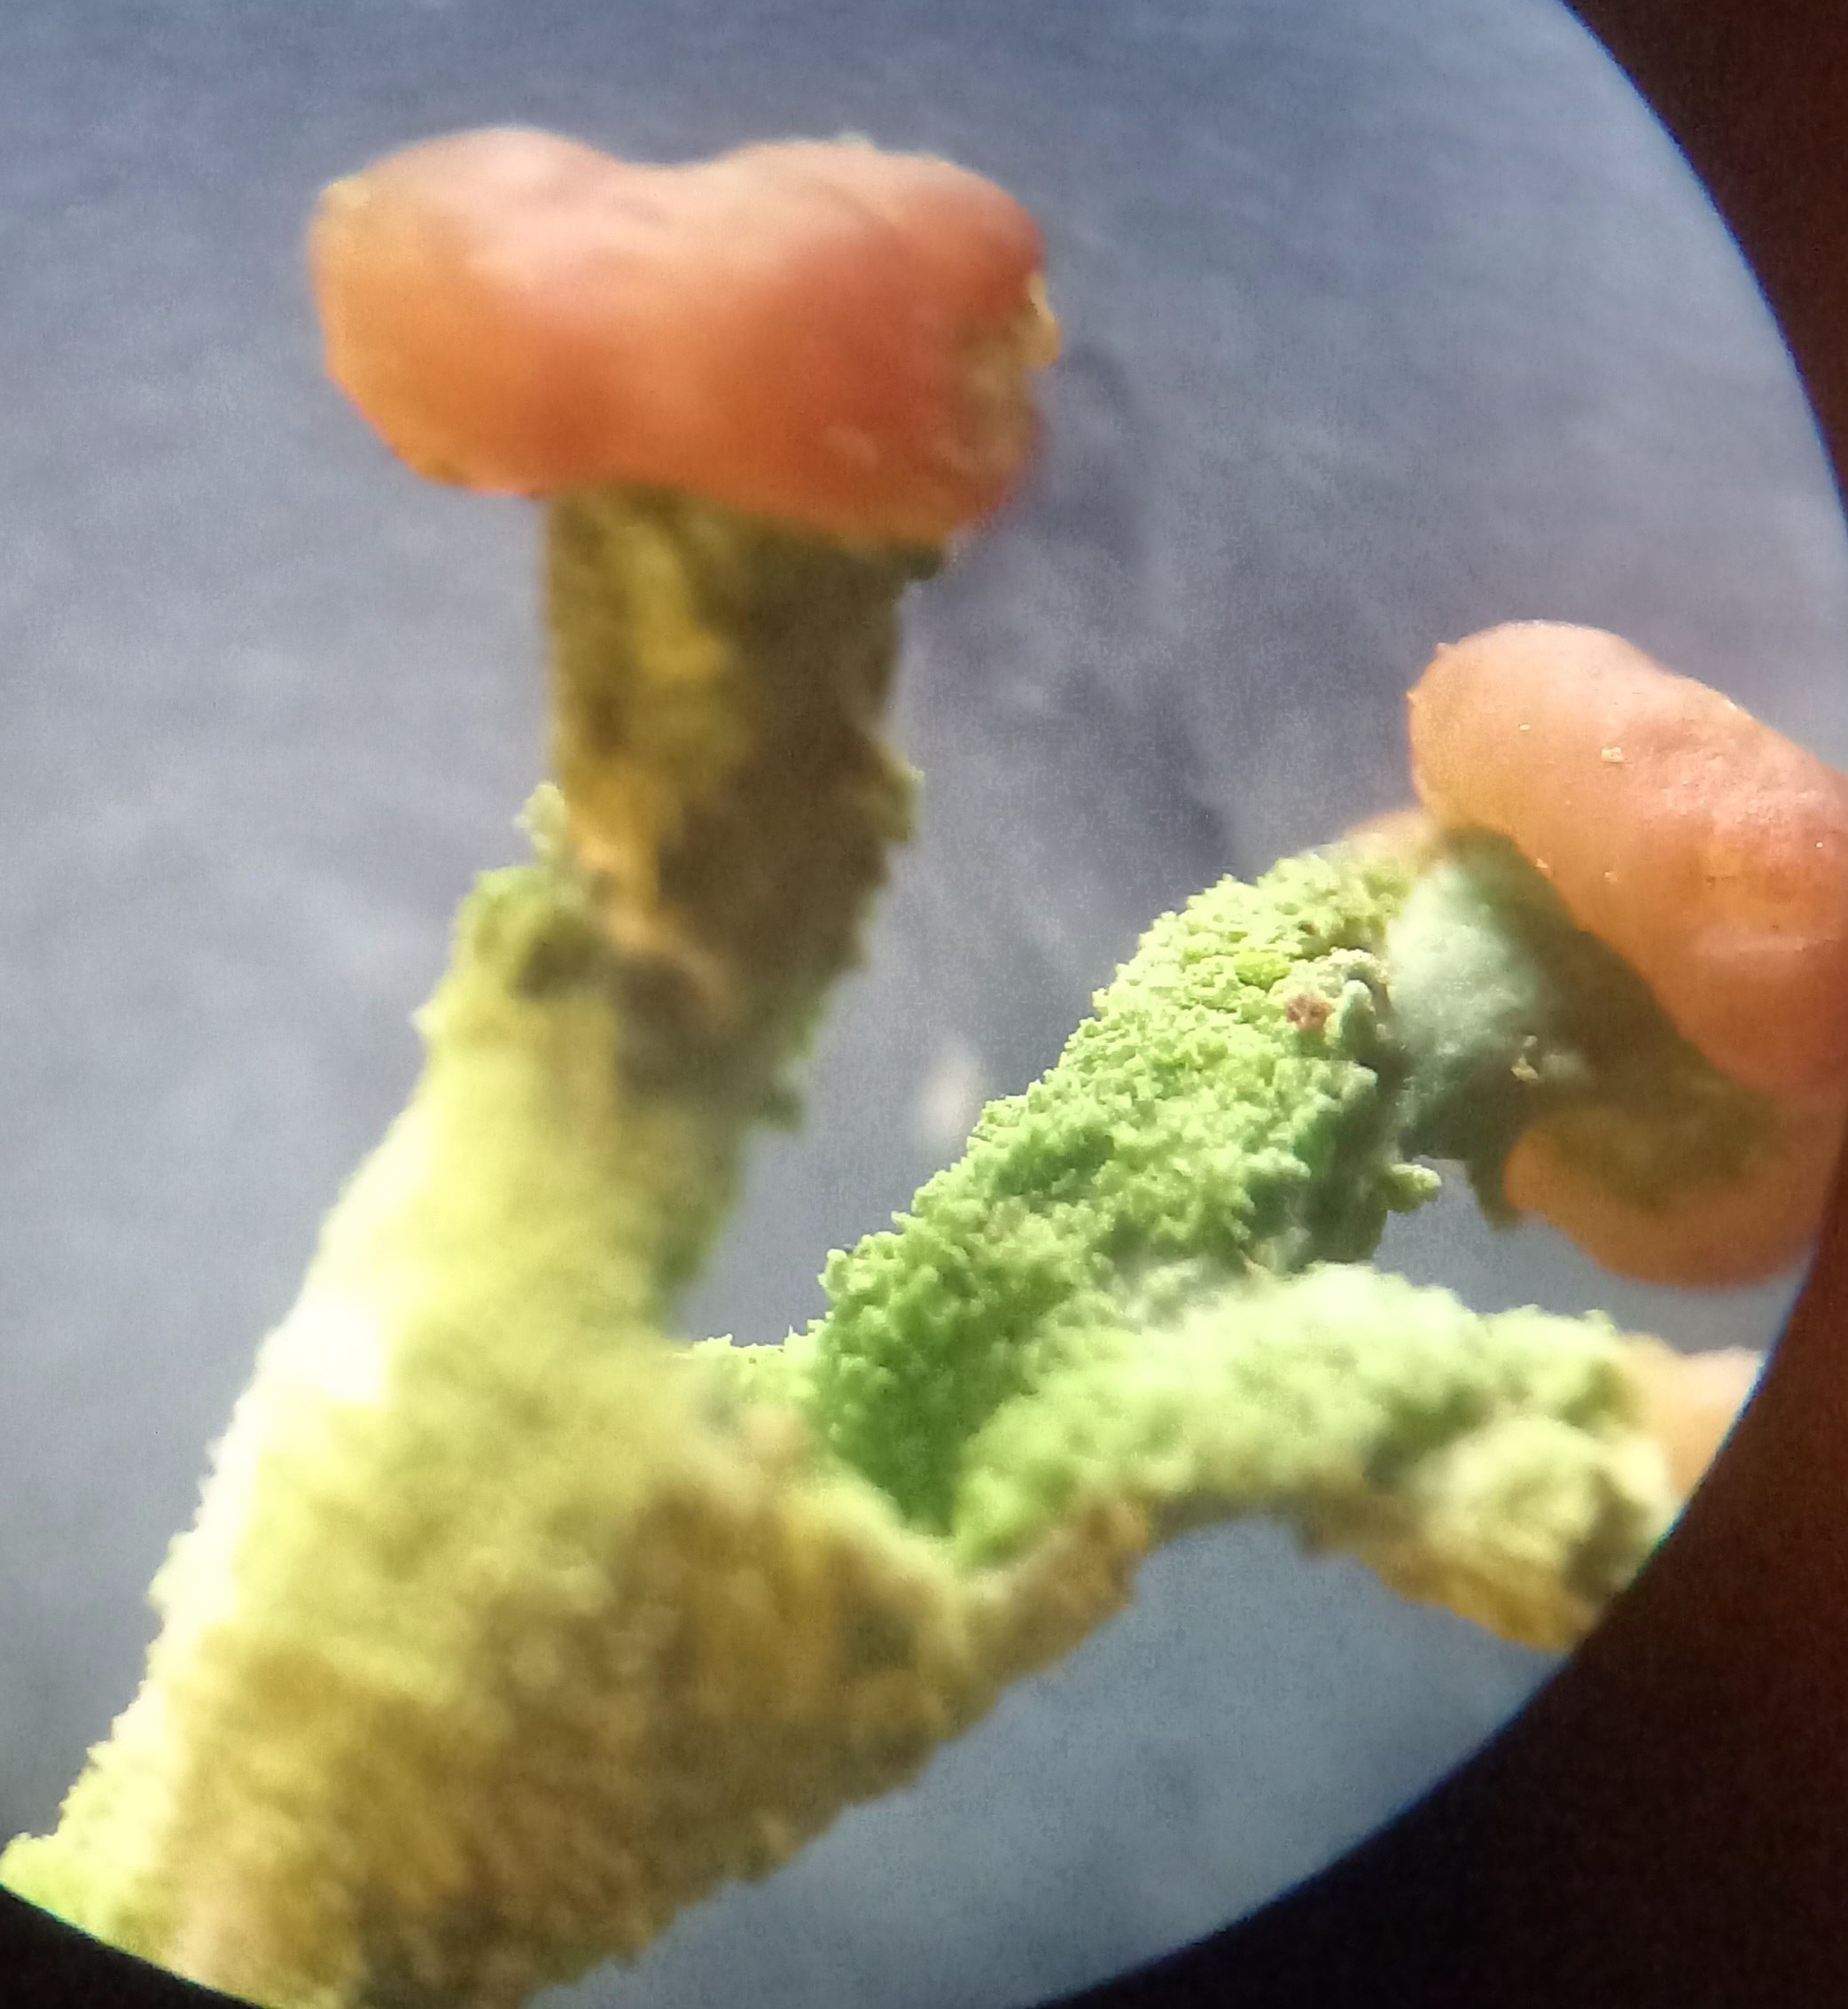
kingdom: Fungi
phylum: Ascomycota
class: Lecanoromycetes
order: Lecanorales
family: Cladoniaceae
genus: Cladonia
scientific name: Cladonia ramulosa
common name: kliddet bægerlav
